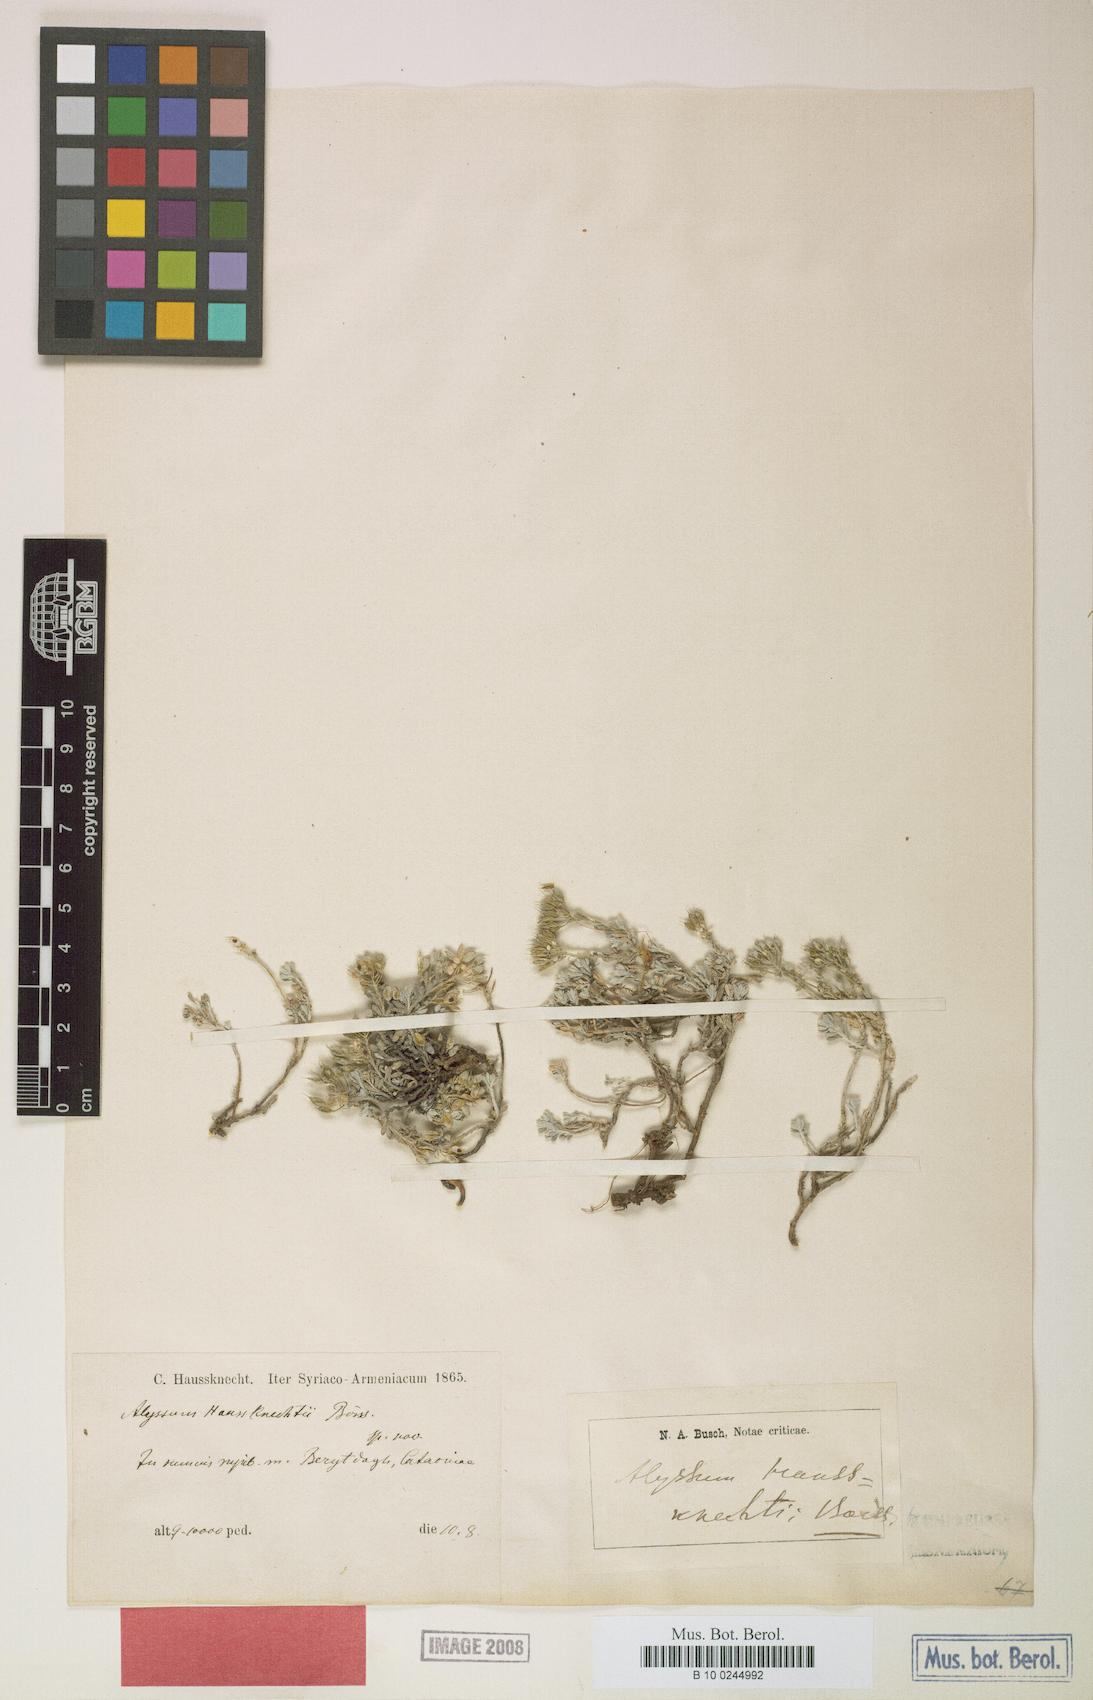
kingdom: Plantae
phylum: Tracheophyta
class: Magnoliopsida
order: Brassicales
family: Brassicaceae
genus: Odontarrhena
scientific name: Odontarrhena haussknechtii
